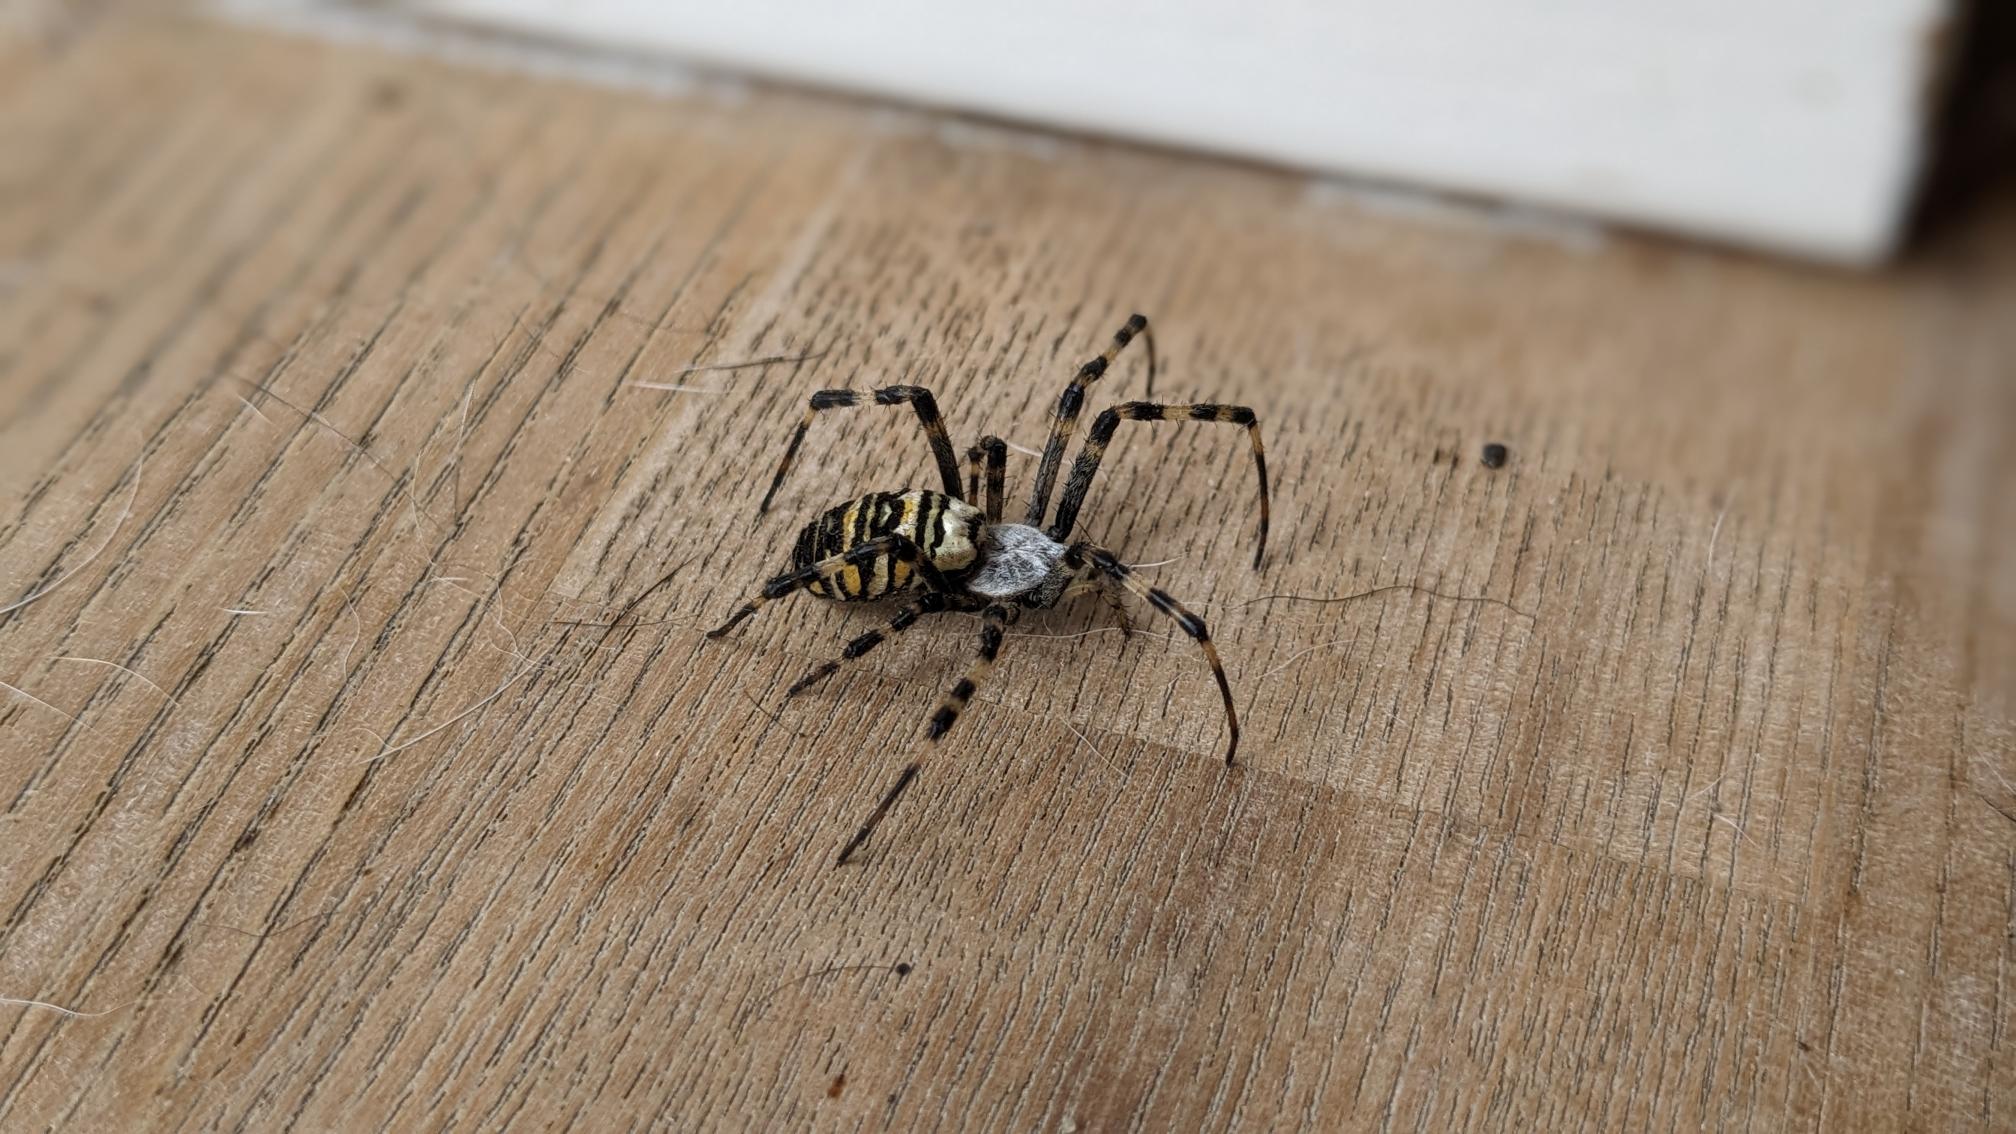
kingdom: Animalia
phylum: Arthropoda
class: Arachnida
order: Araneae
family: Araneidae
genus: Argiope
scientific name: Argiope bruennichi
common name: Hvepseedderkop
